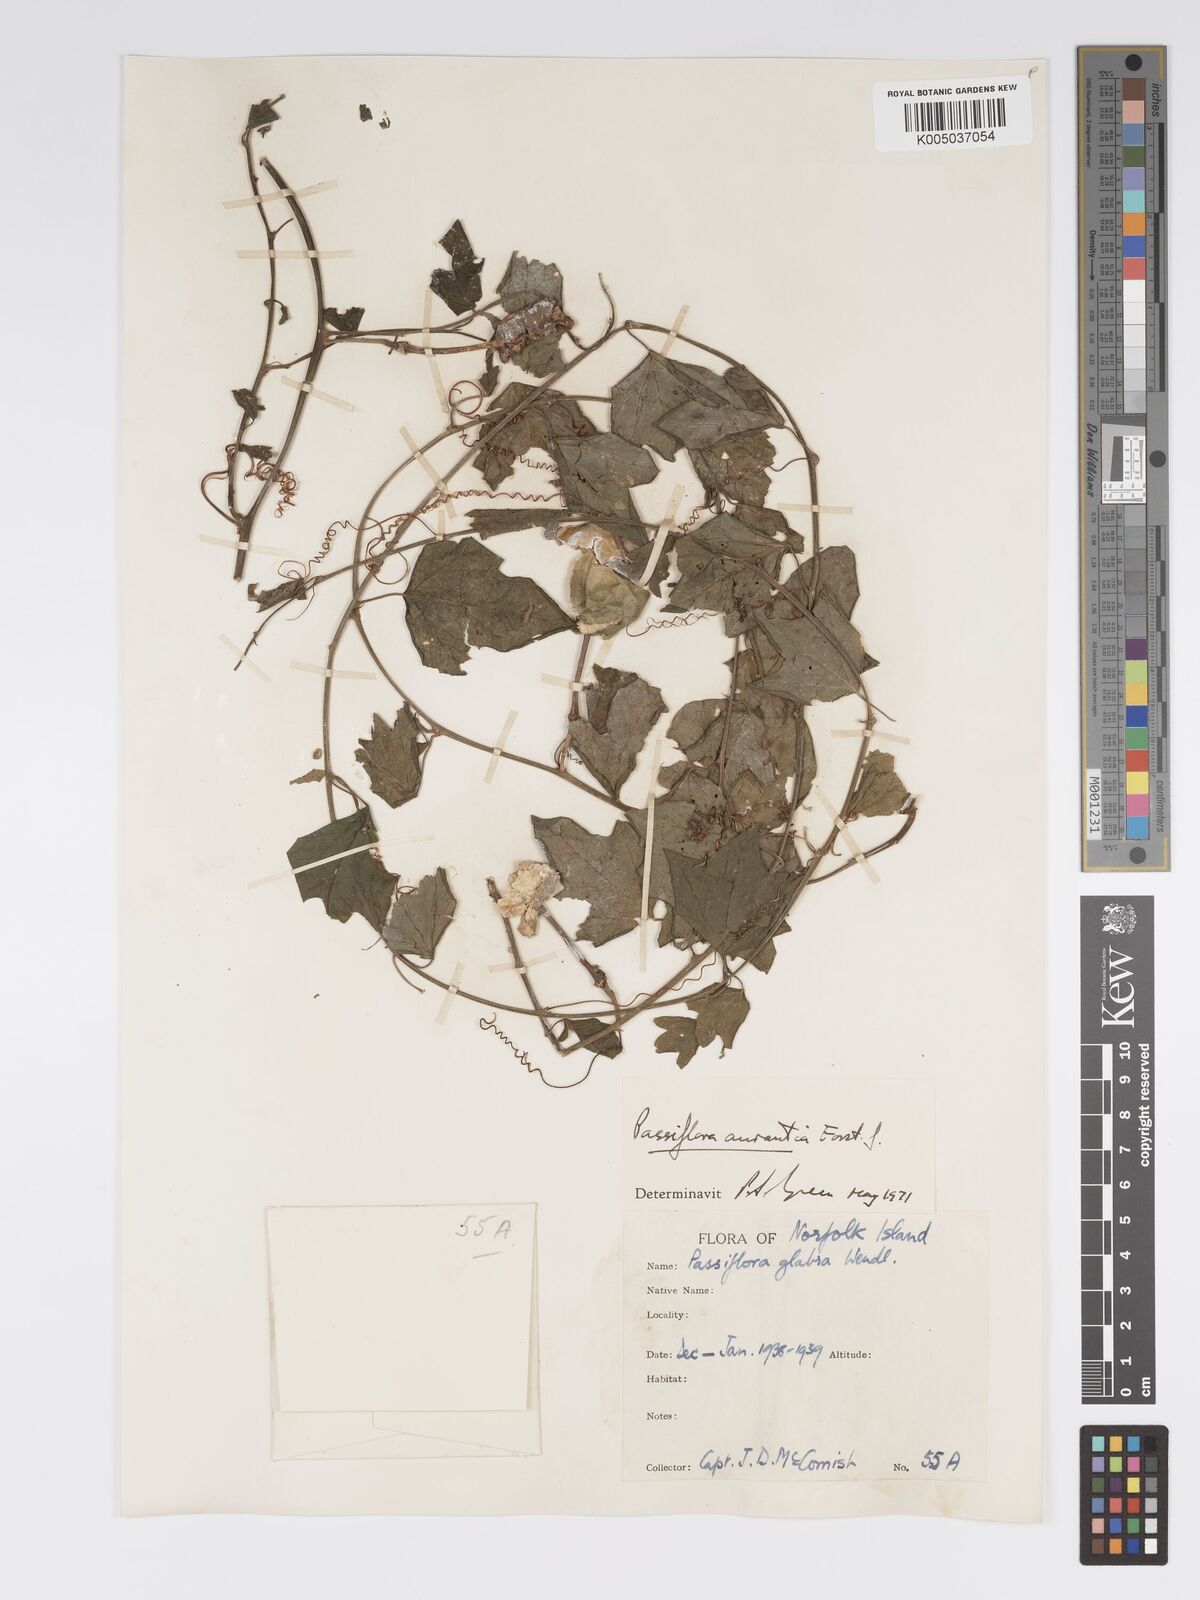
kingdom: Plantae
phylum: Tracheophyta
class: Magnoliopsida
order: Malpighiales
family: Passifloraceae
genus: Passiflora
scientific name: Passiflora aurantia
